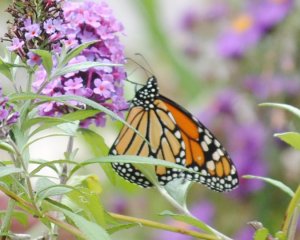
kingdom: Animalia
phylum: Arthropoda
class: Insecta
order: Lepidoptera
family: Nymphalidae
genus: Danaus
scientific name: Danaus plexippus
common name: Monarch
